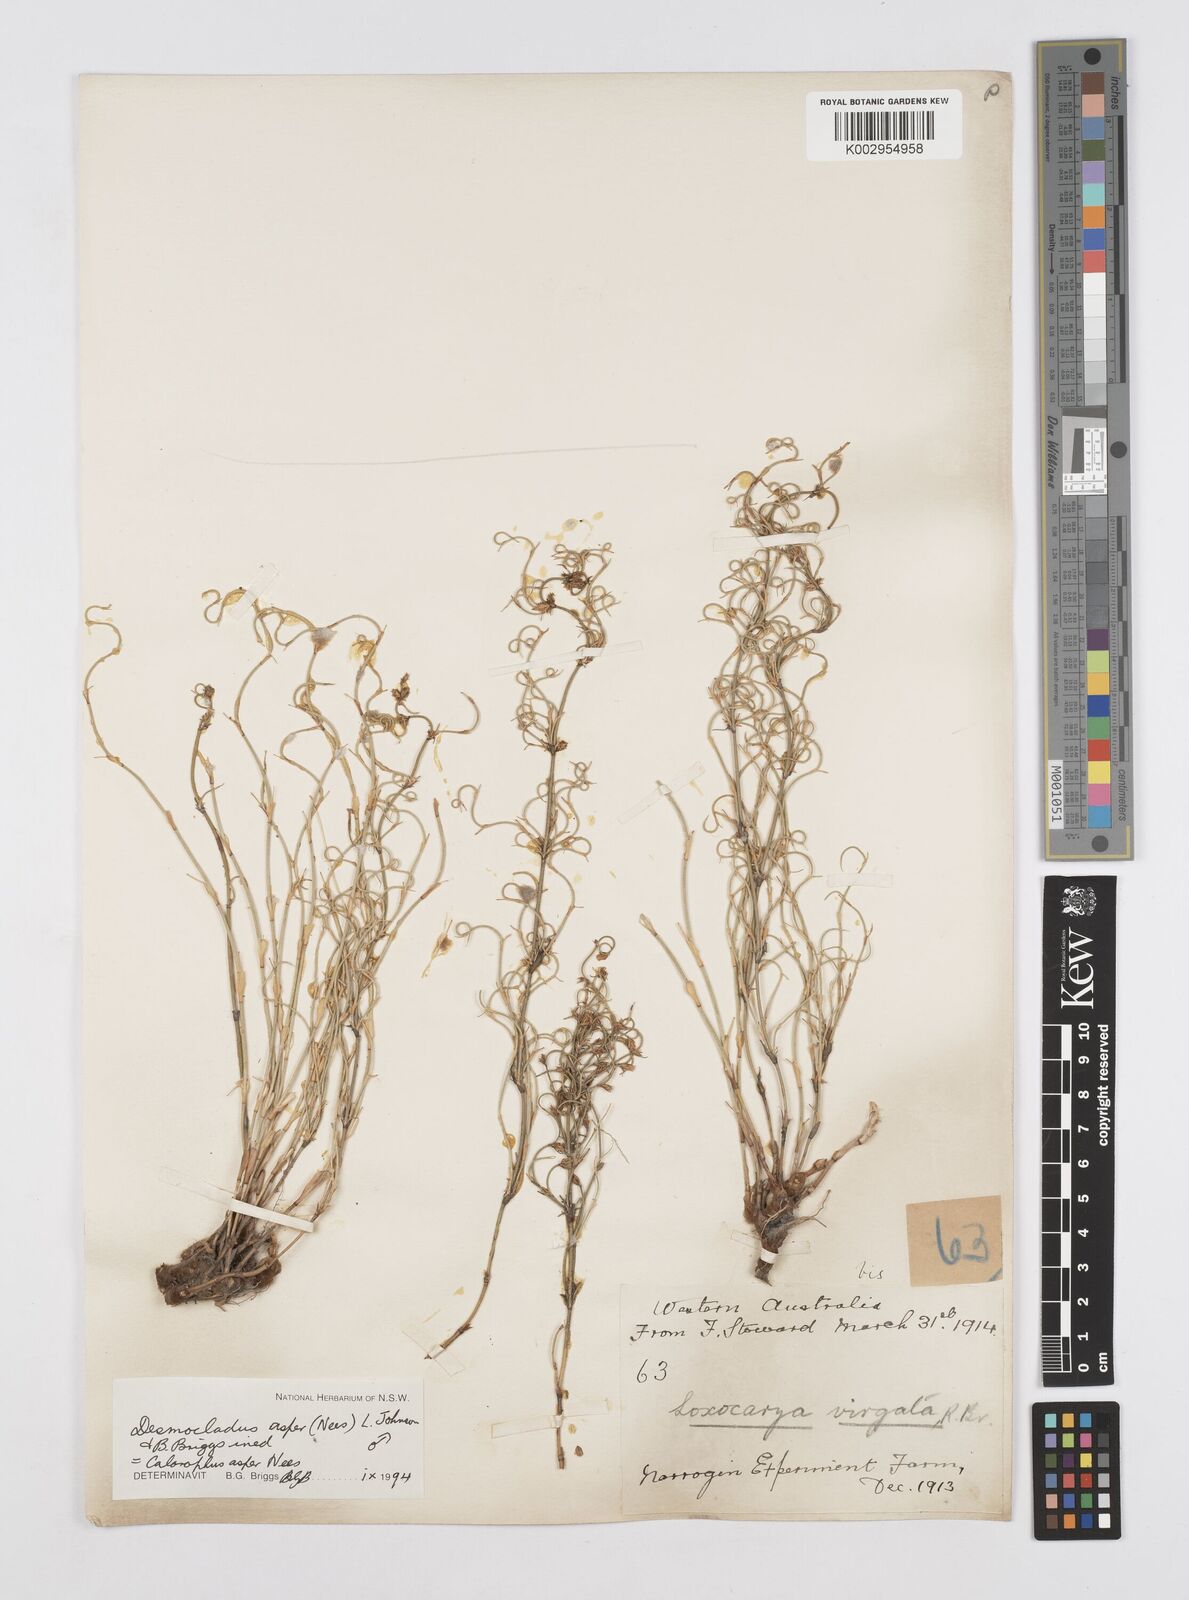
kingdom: Plantae
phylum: Tracheophyta
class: Liliopsida
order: Poales
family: Restionaceae
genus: Desmocladus
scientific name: Desmocladus asper
